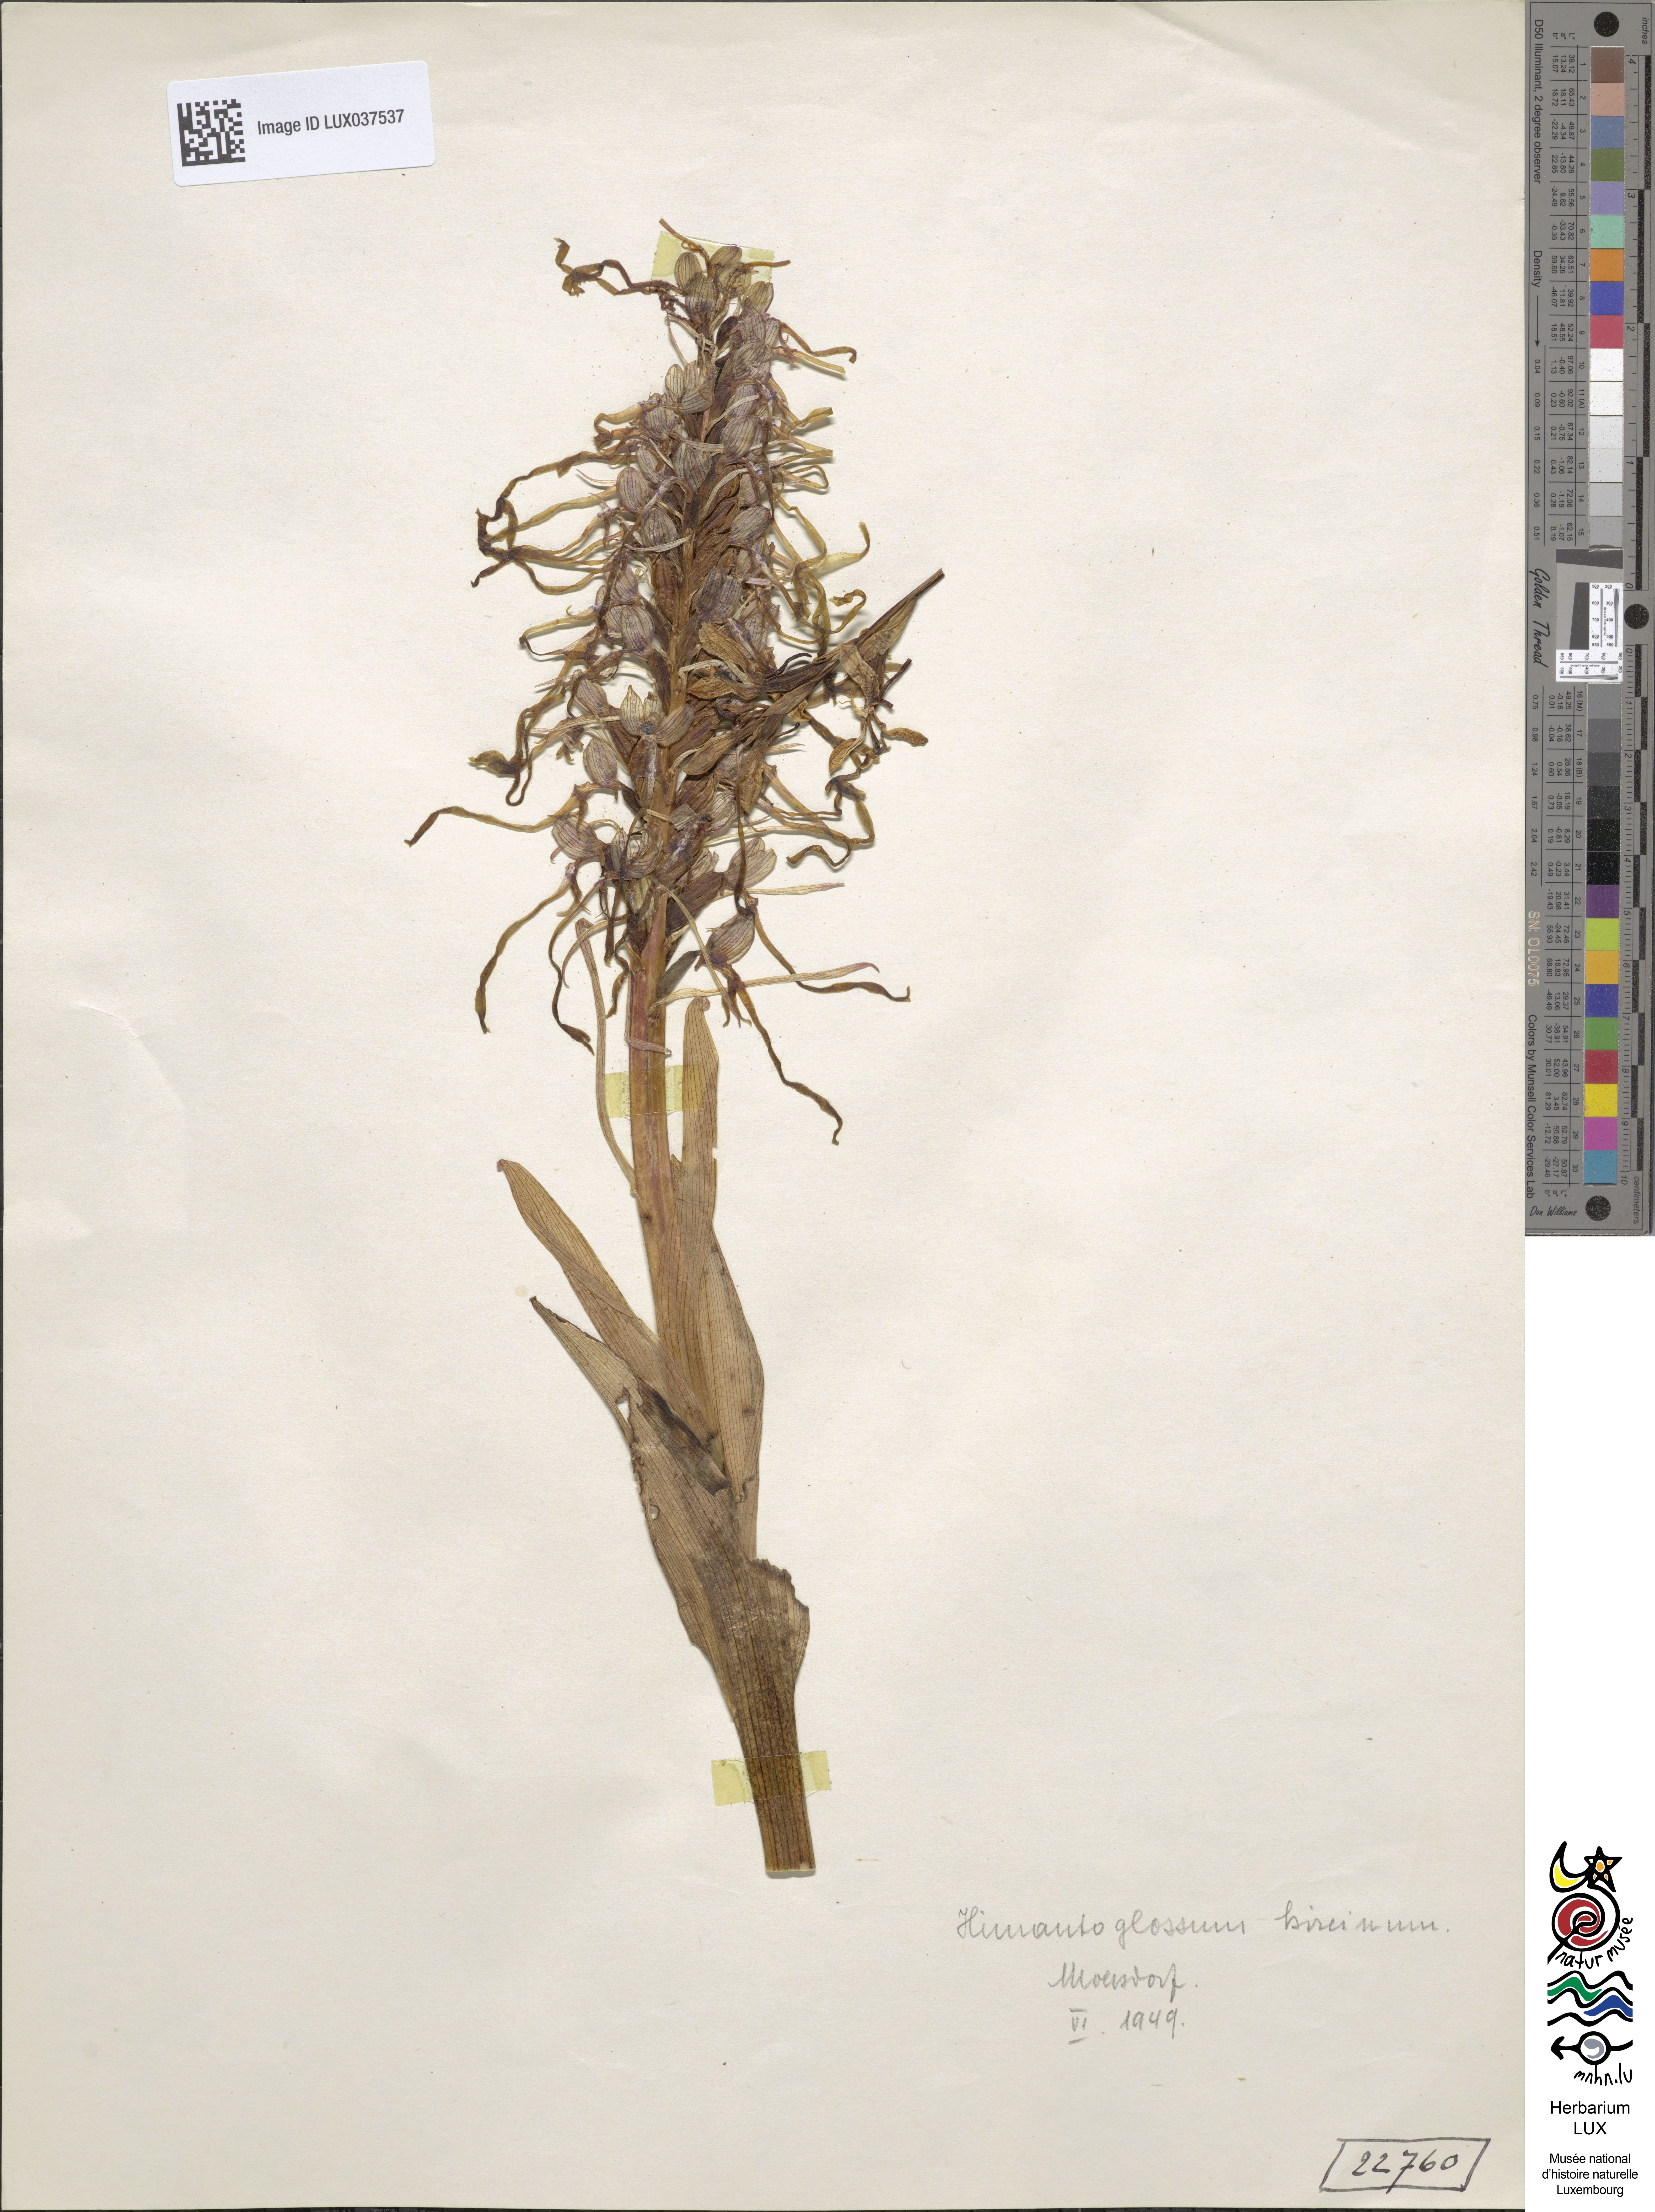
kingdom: Plantae
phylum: Tracheophyta
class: Liliopsida
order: Asparagales
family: Orchidaceae
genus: Himantoglossum
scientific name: Himantoglossum hircinum
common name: Lizard orchid
